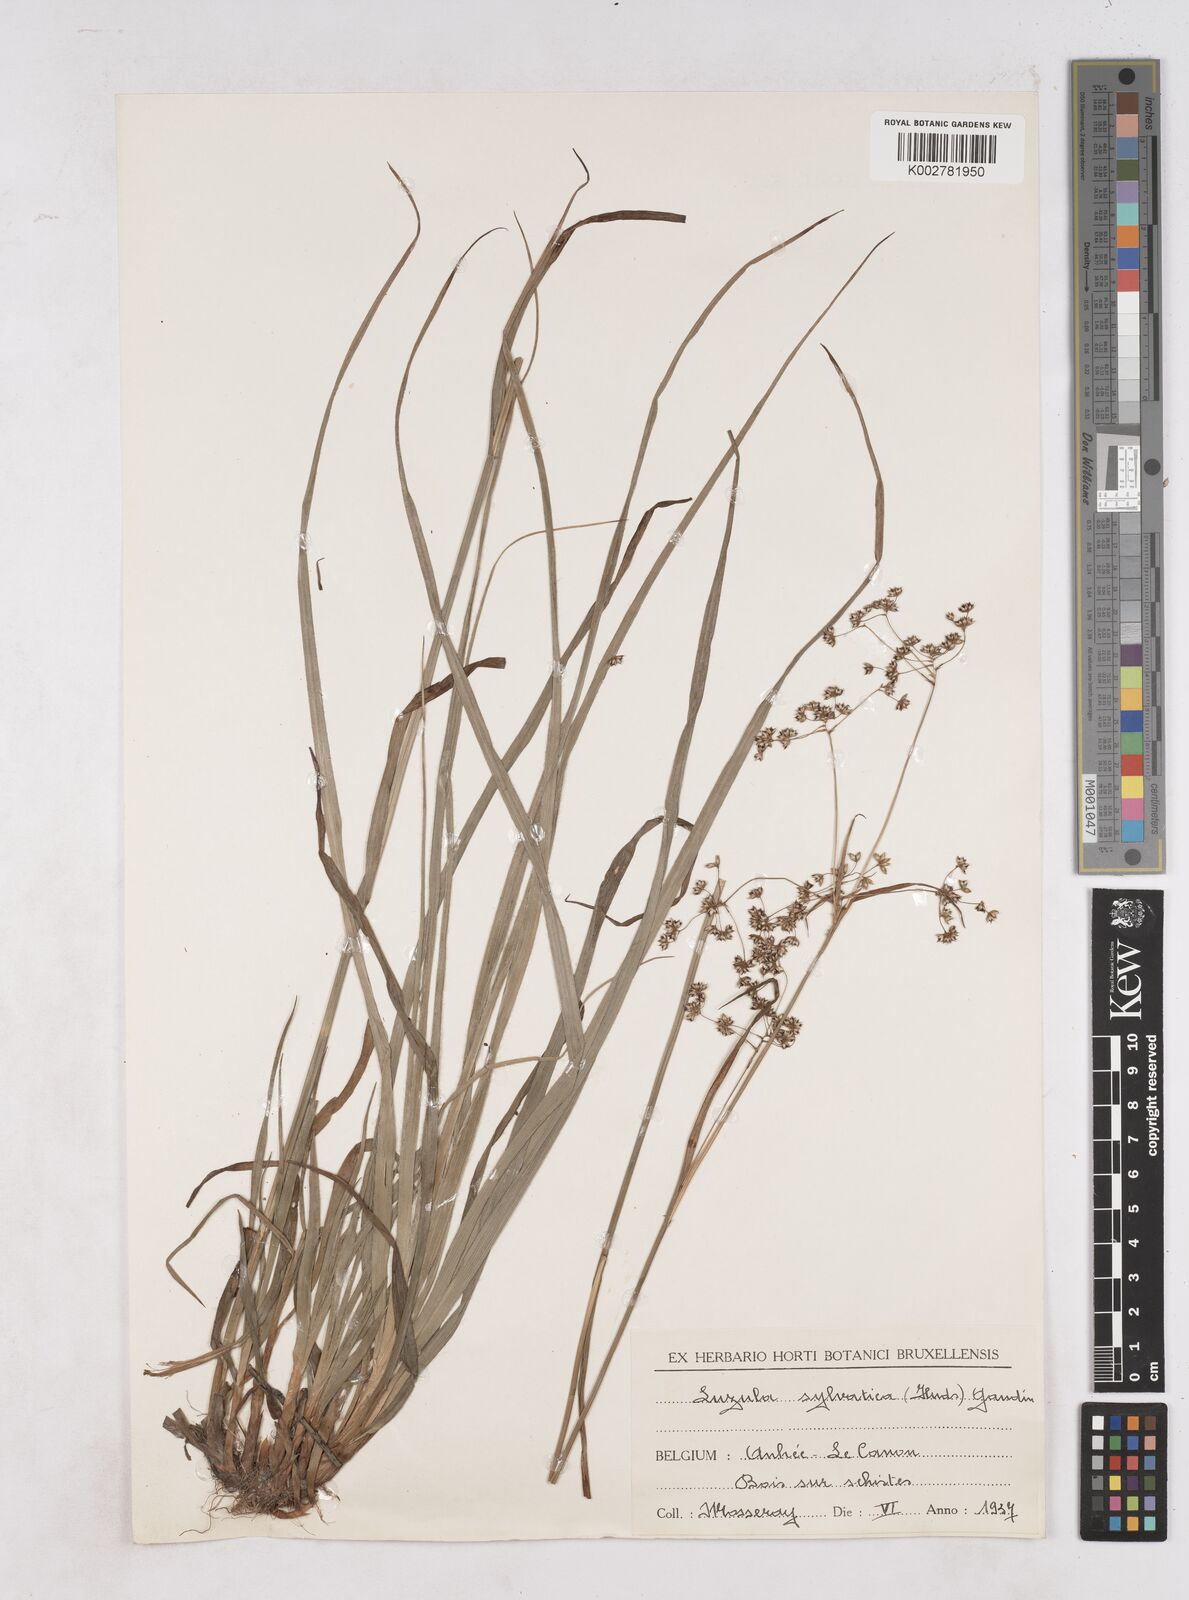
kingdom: Plantae
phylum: Tracheophyta
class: Liliopsida
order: Poales
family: Juncaceae
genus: Luzula
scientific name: Luzula sylvatica
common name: Great wood-rush
